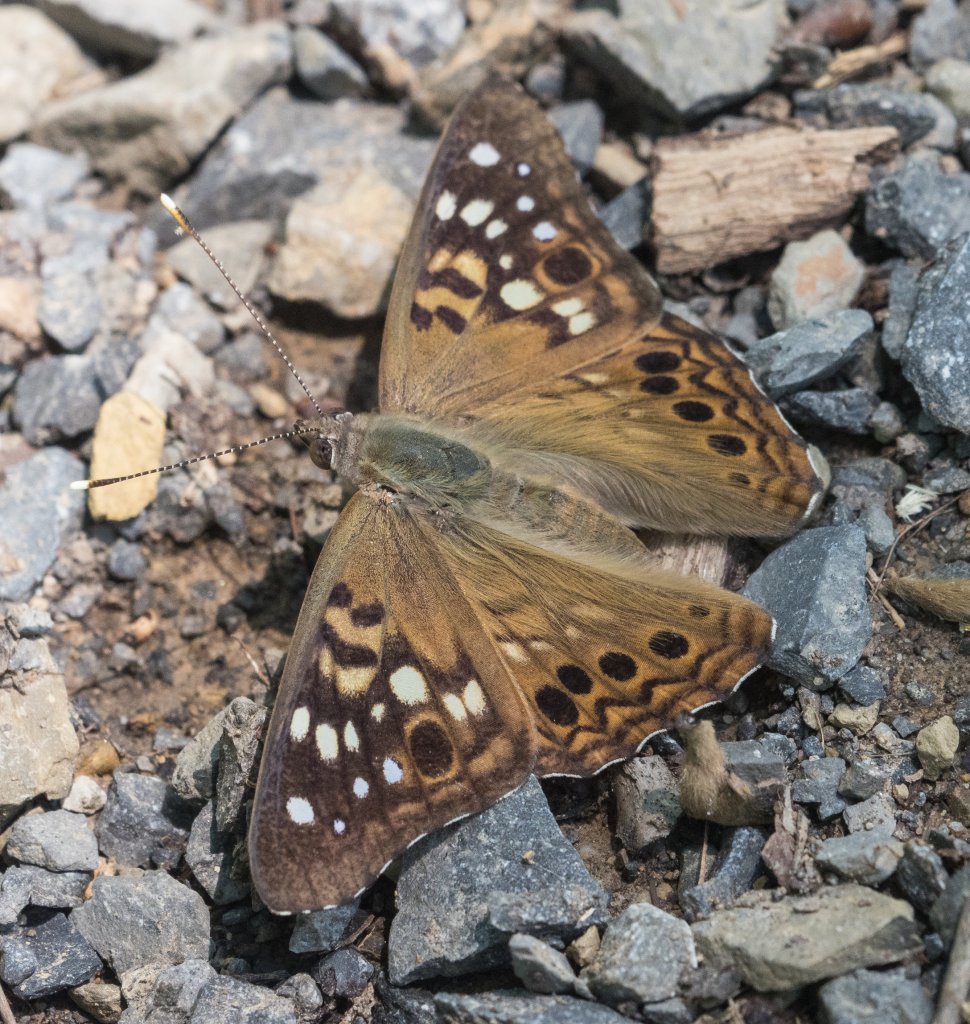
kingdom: Animalia
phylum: Arthropoda
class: Insecta
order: Lepidoptera
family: Nymphalidae
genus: Asterocampa
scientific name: Asterocampa celtis
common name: Hackberry Emperor
